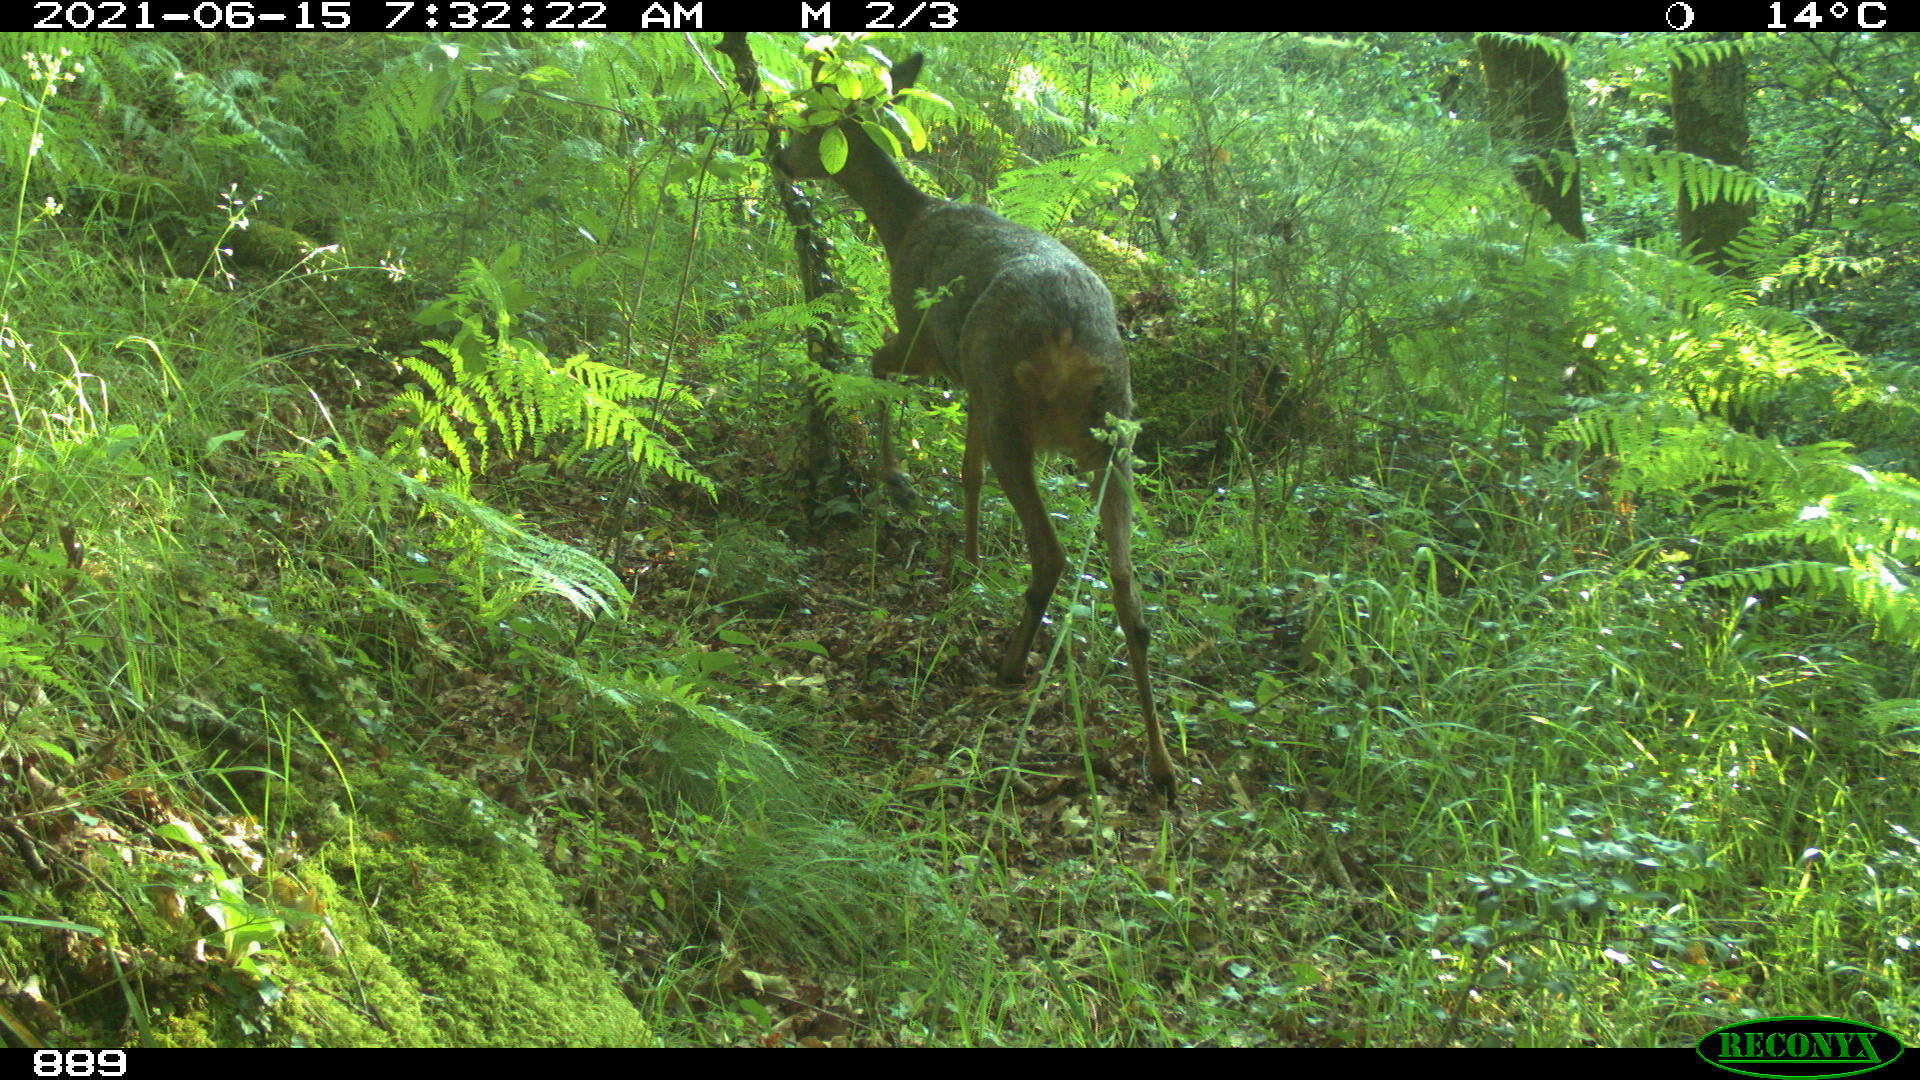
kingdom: Animalia
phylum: Chordata
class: Mammalia
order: Artiodactyla
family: Cervidae
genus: Capreolus
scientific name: Capreolus capreolus
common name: Western roe deer
